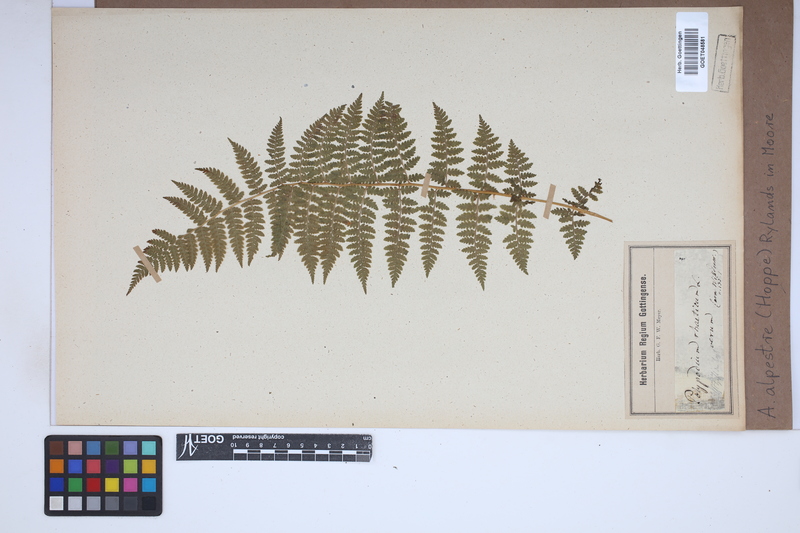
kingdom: Plantae
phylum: Tracheophyta
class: Polypodiopsida
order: Polypodiales
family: Athyriaceae
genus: Pseudathyrium
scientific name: Pseudathyrium alpestre
